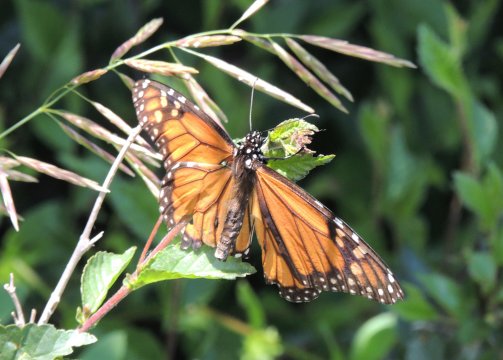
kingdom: Animalia
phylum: Arthropoda
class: Insecta
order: Lepidoptera
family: Nymphalidae
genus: Danaus
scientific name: Danaus plexippus
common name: Monarch
